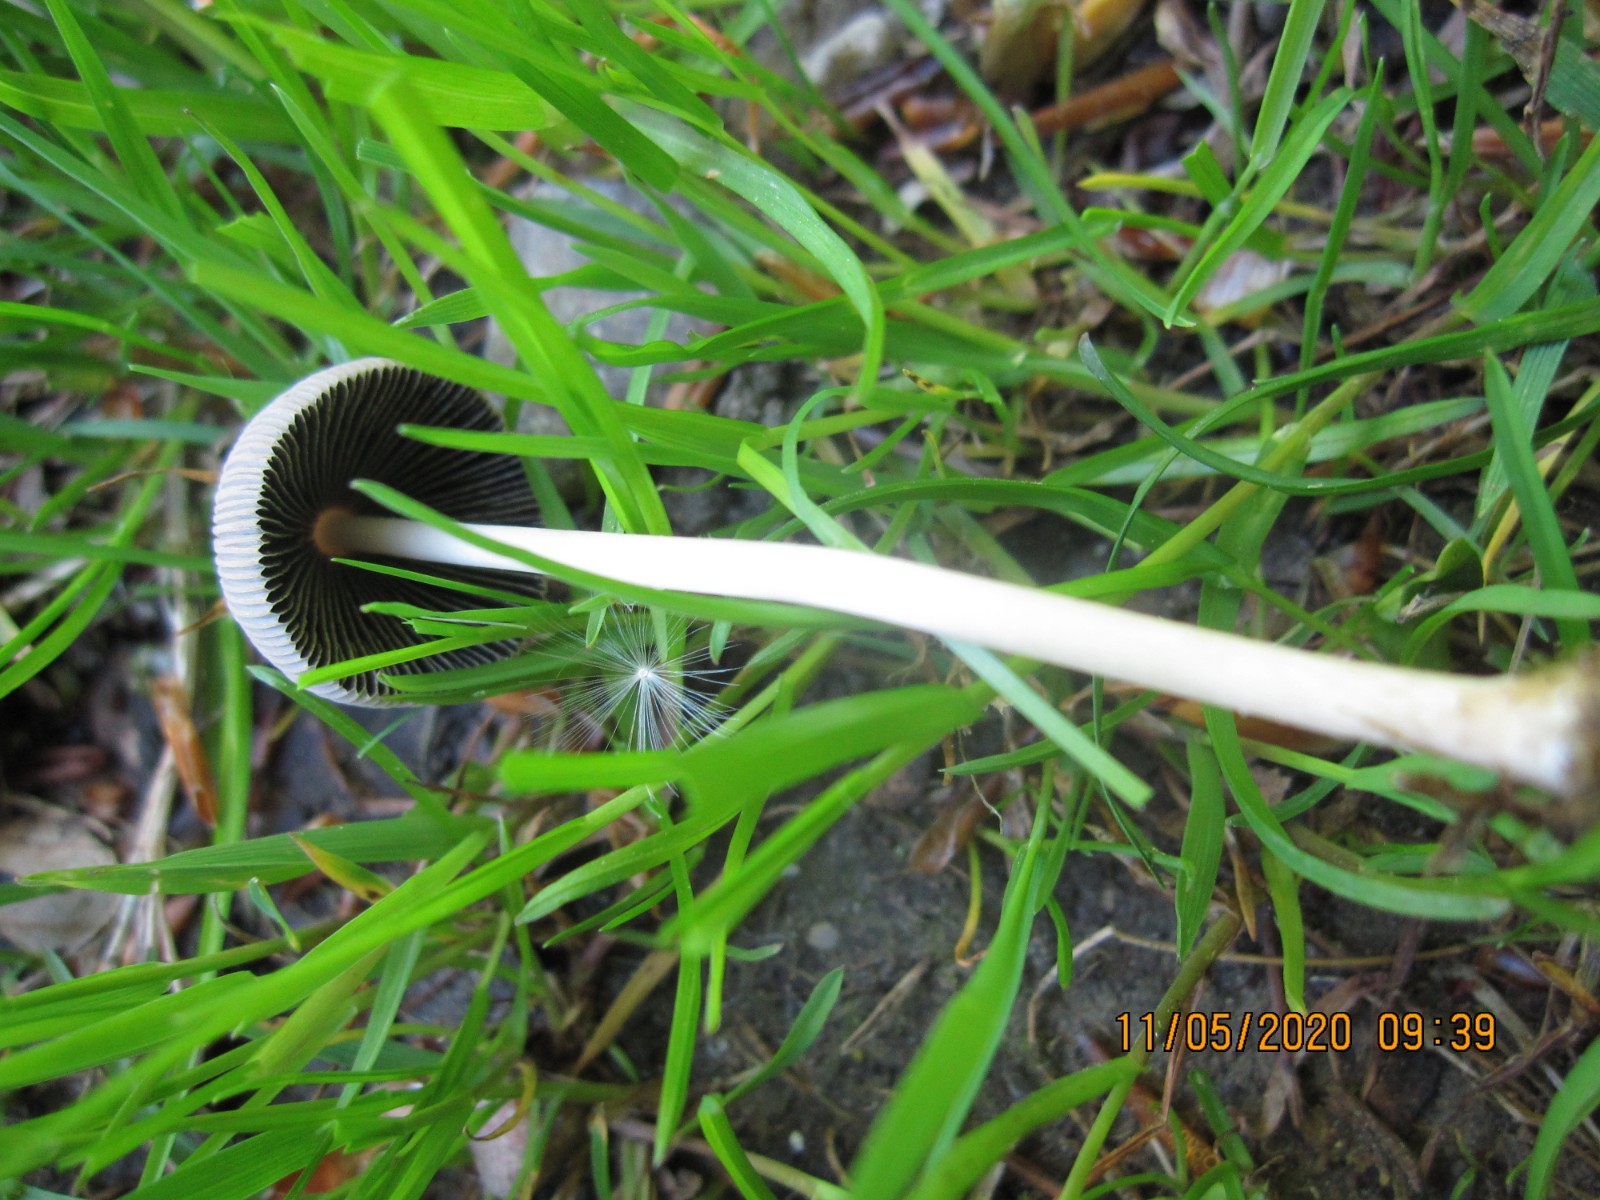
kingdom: Fungi
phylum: Basidiomycota
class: Agaricomycetes
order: Agaricales
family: Psathyrellaceae
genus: Parasola
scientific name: Parasola auricoma
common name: hansens hjulhat
